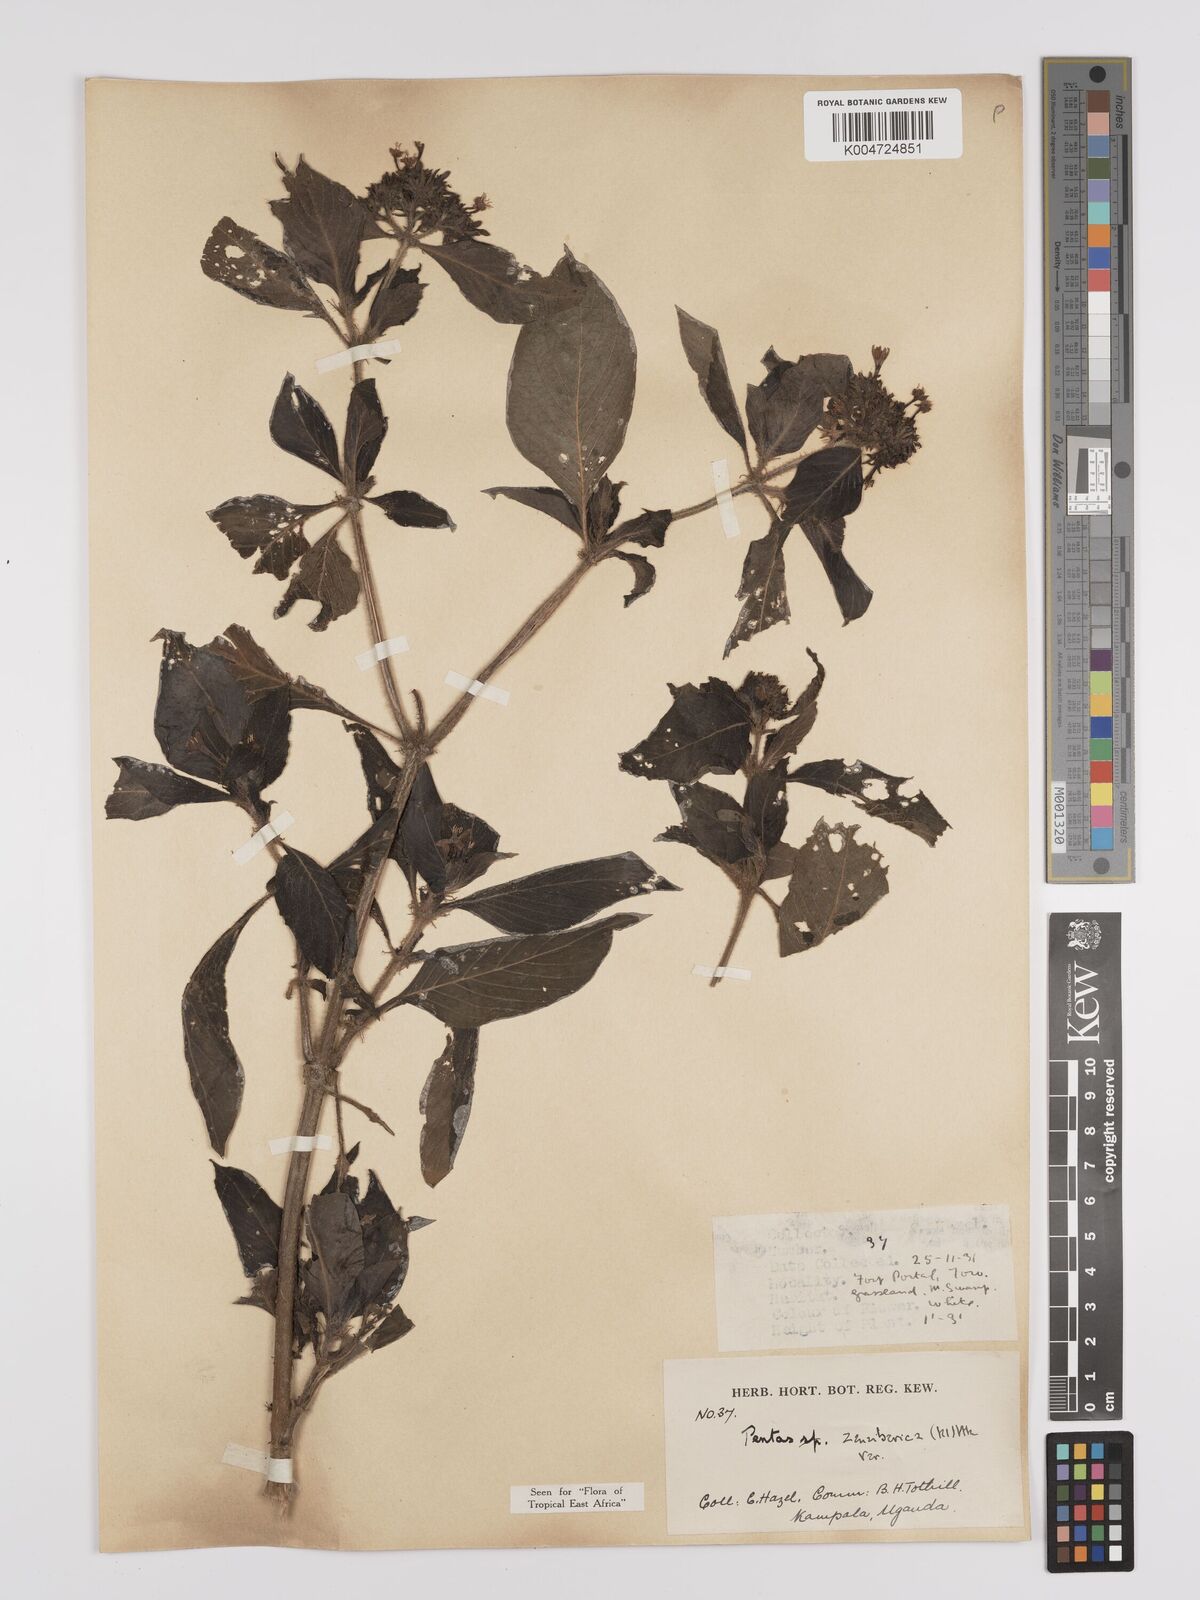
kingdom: Plantae
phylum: Tracheophyta
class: Magnoliopsida
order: Gentianales
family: Rubiaceae
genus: Pentas
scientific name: Pentas zanzibarica
